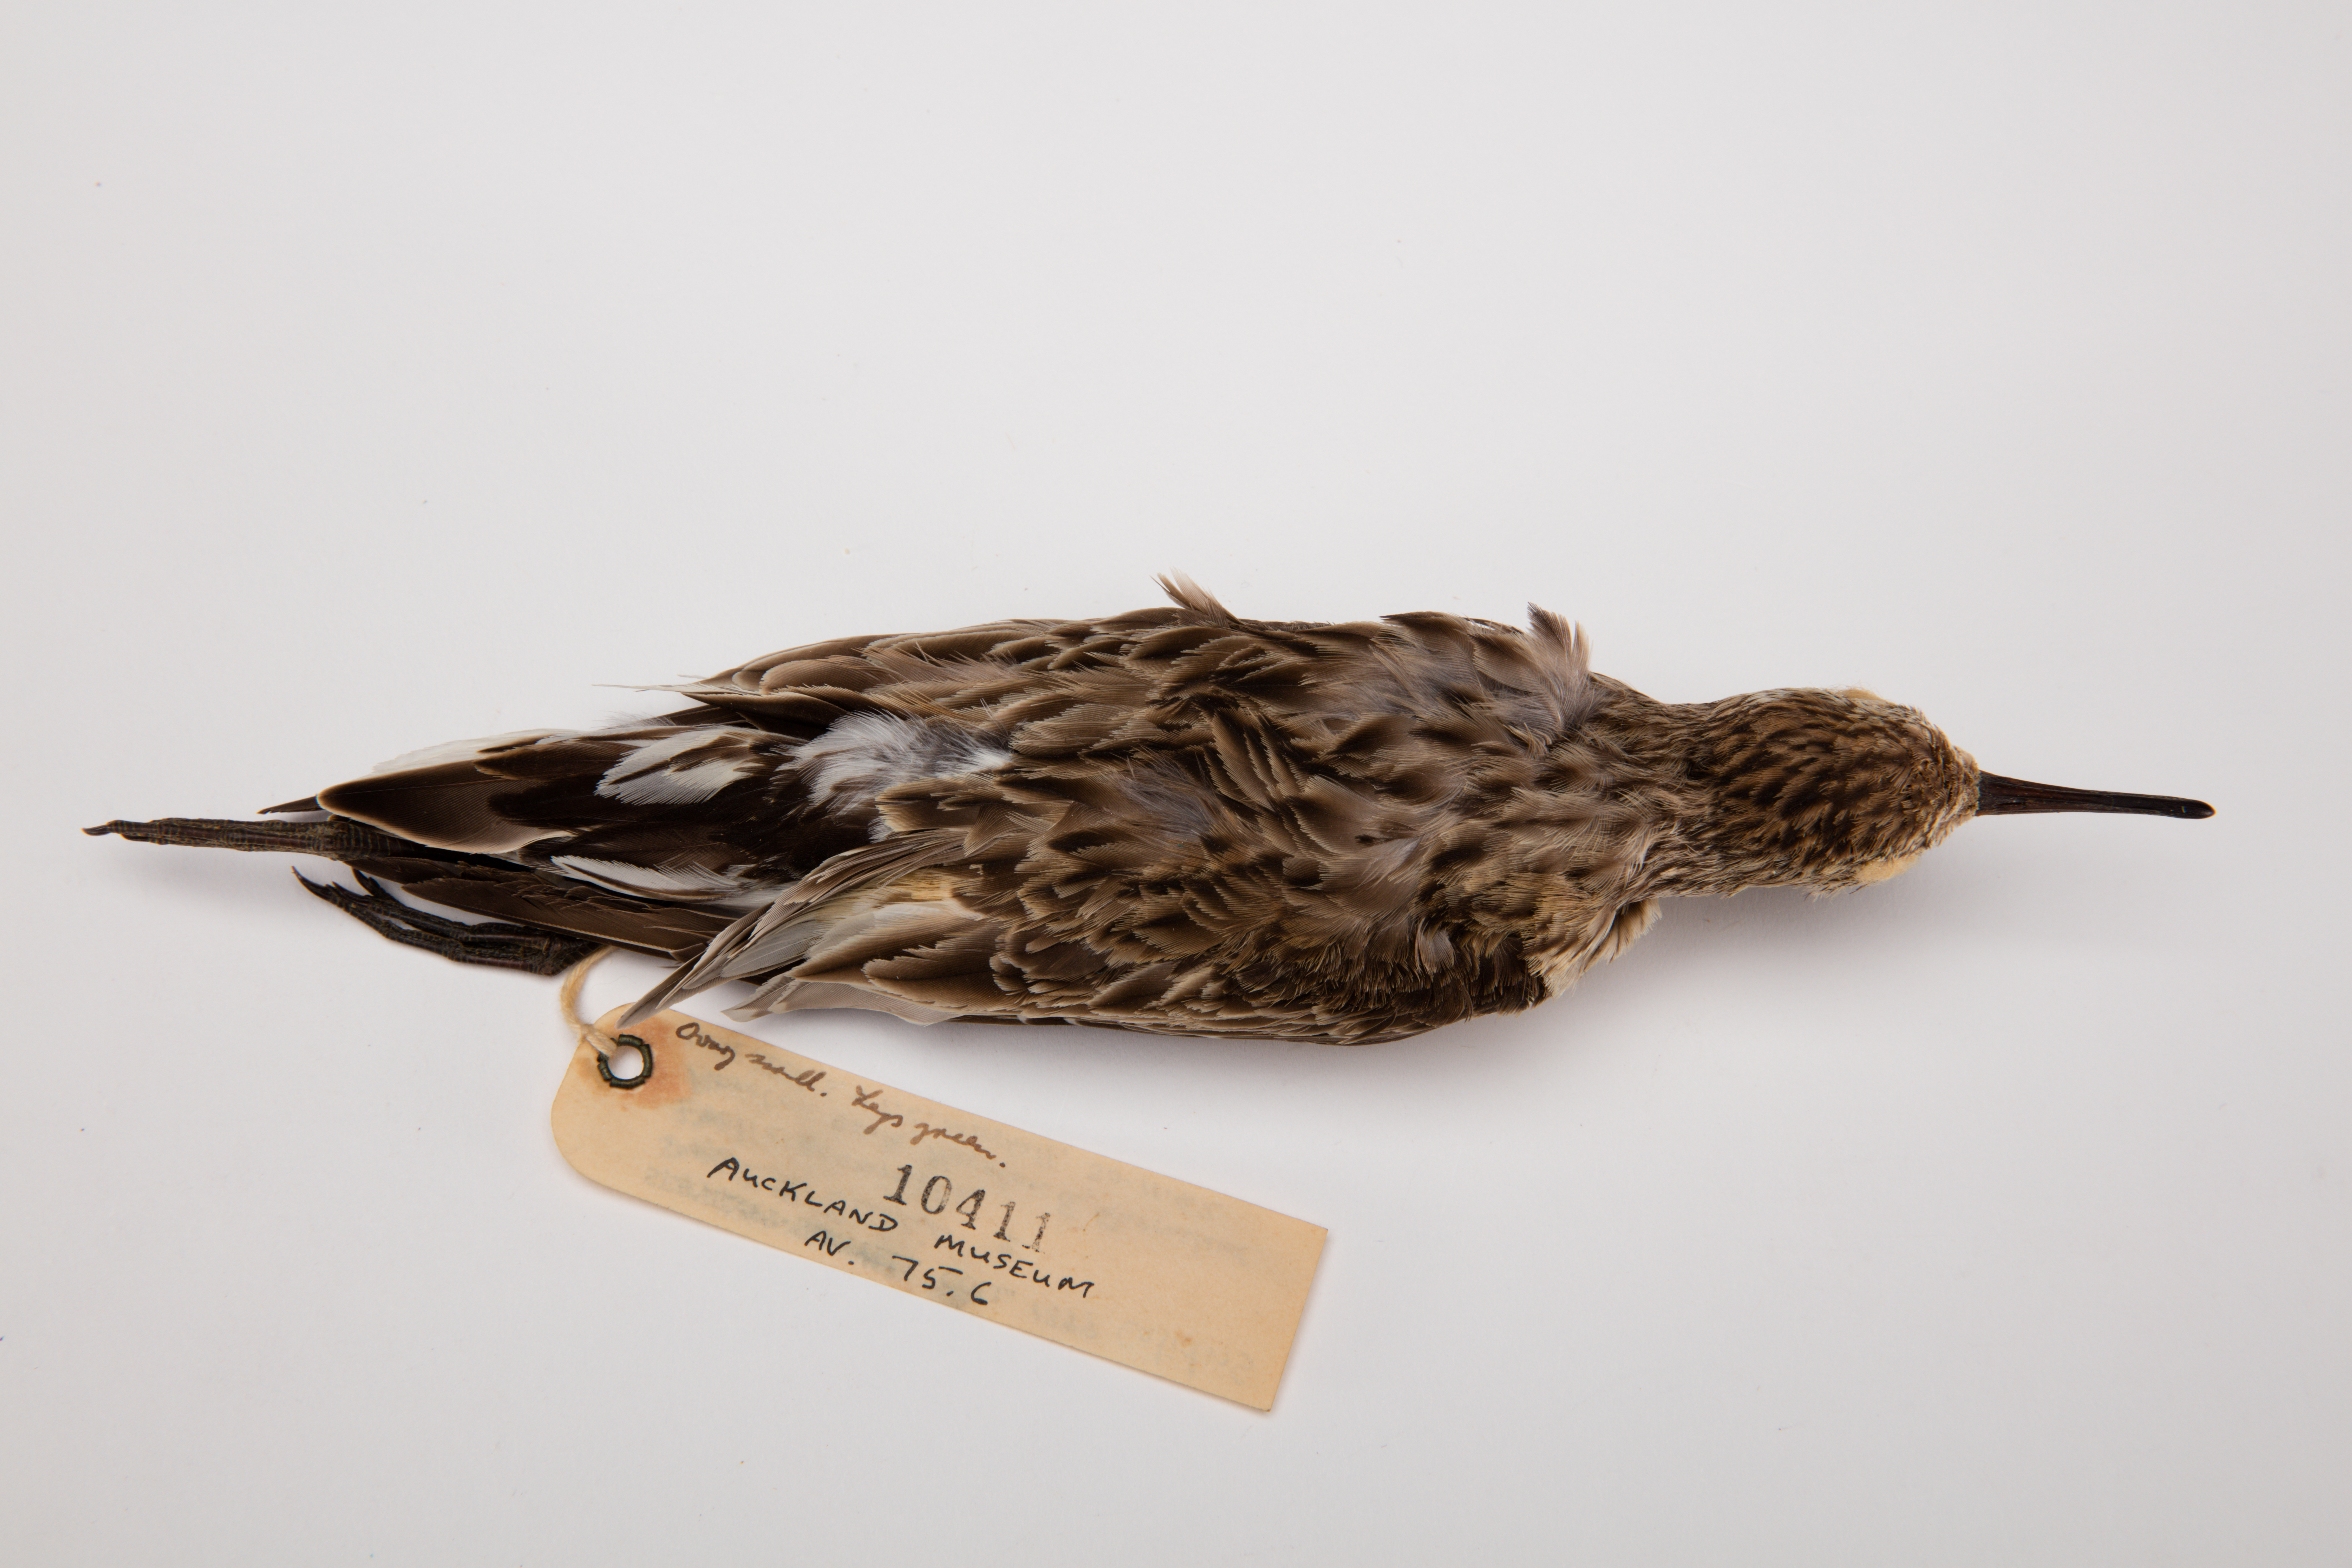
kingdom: Animalia
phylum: Chordata
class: Aves
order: Charadriiformes
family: Scolopacidae
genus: Calidris
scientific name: Calidris acuminata
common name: Sharp-tailed sandpiper
